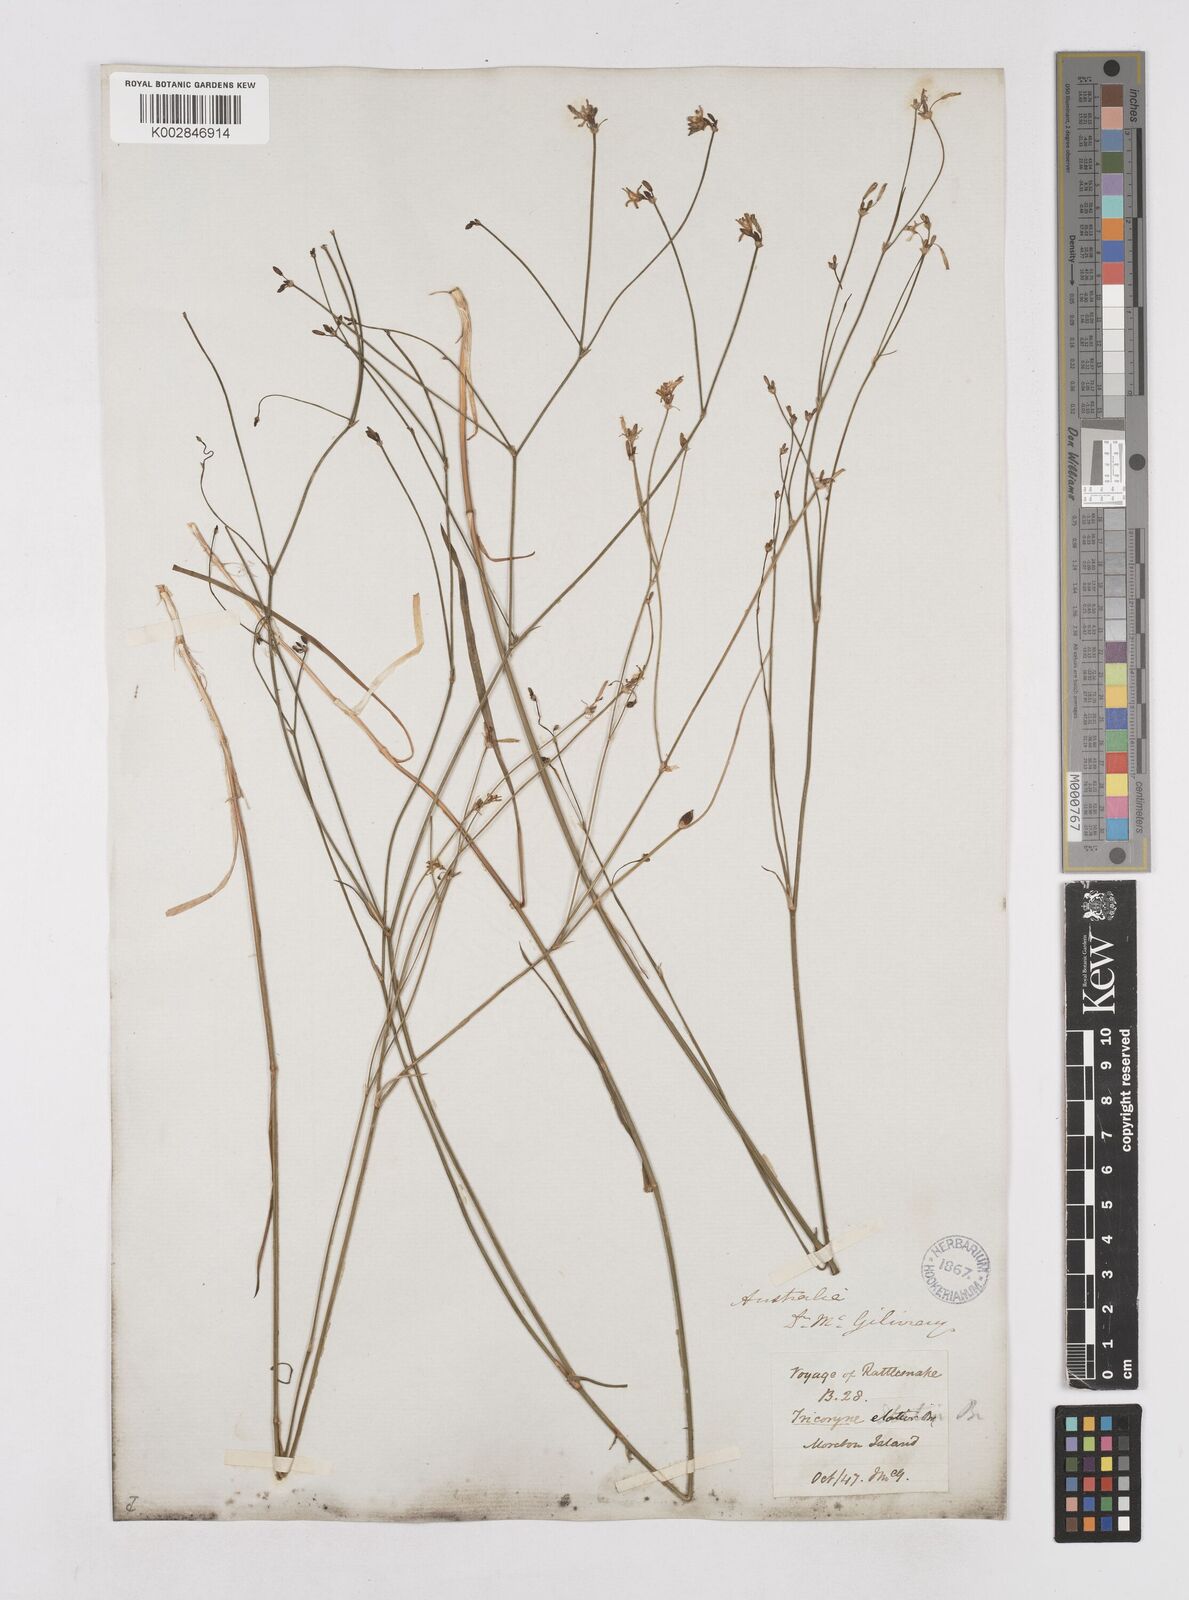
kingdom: Plantae
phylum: Tracheophyta
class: Liliopsida
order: Asparagales
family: Asphodelaceae
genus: Tricoryne
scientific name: Tricoryne elatior
